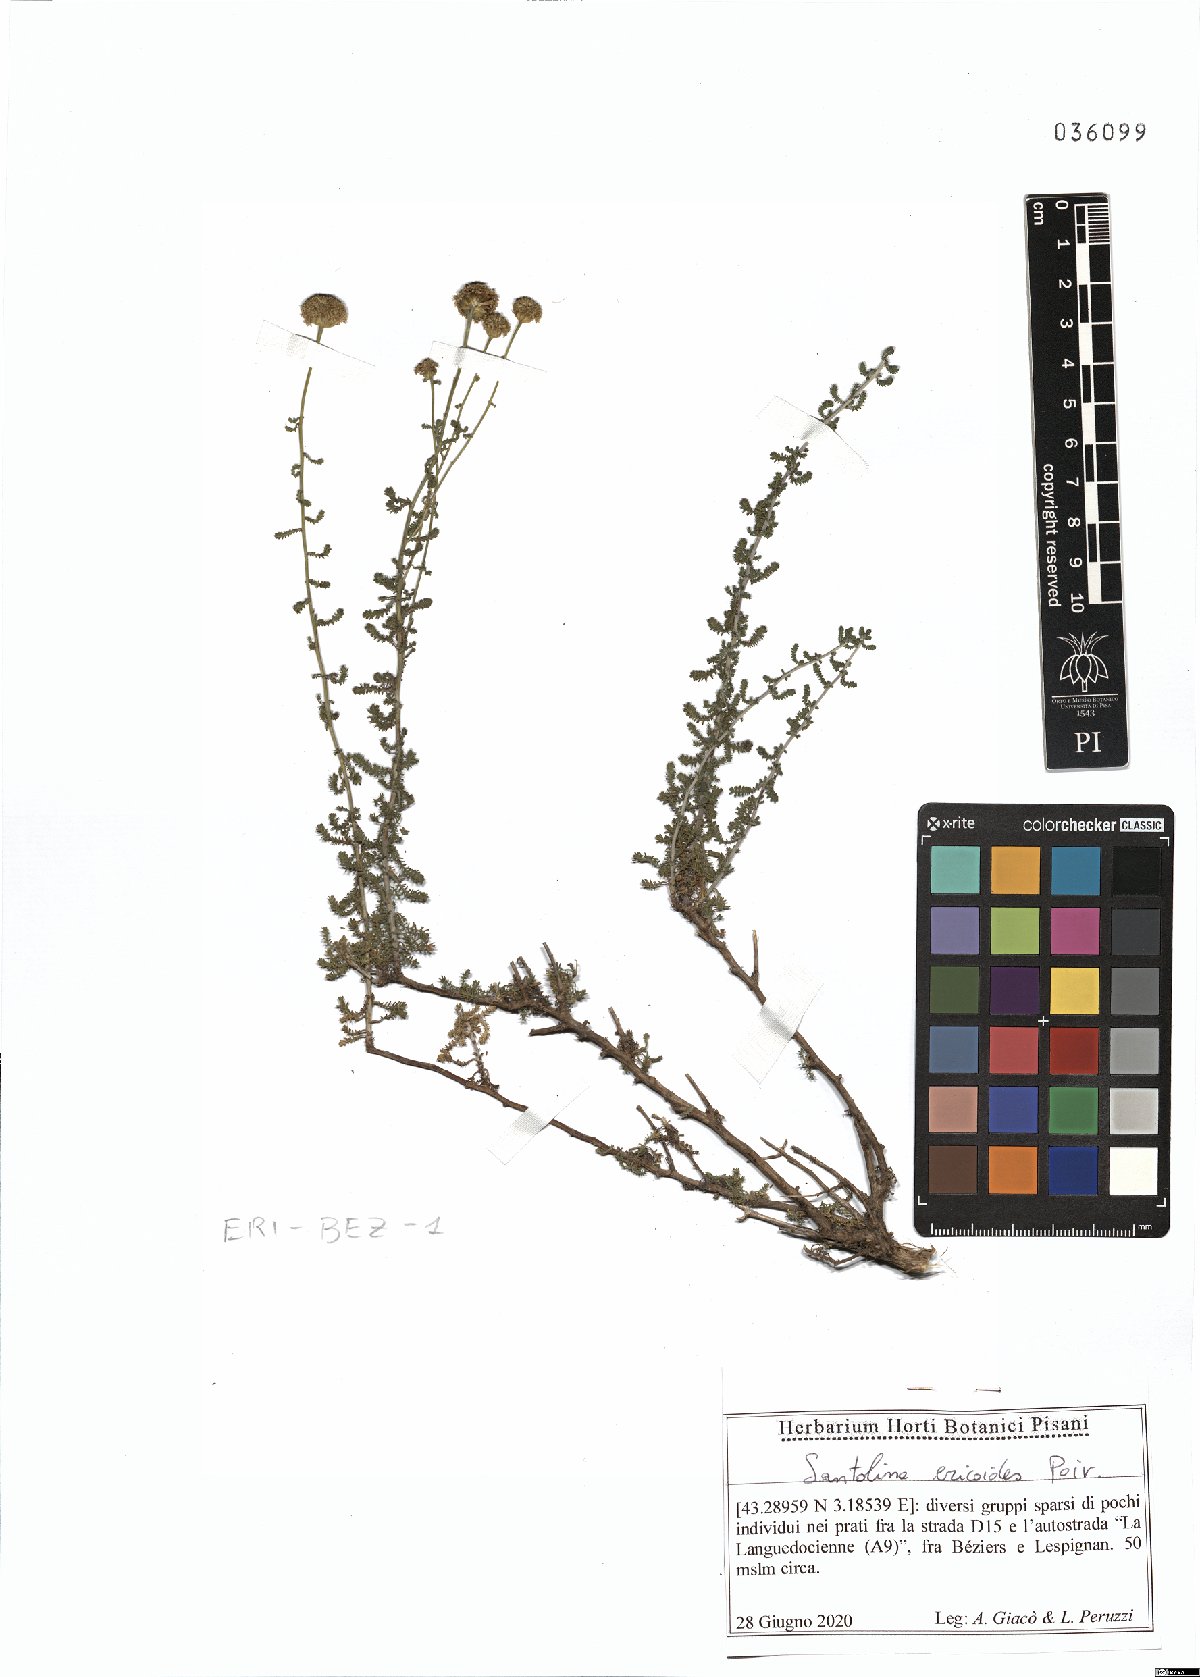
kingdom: Plantae
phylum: Tracheophyta
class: Magnoliopsida
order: Asterales
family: Asteraceae
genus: Santolina
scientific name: Santolina ericoides
